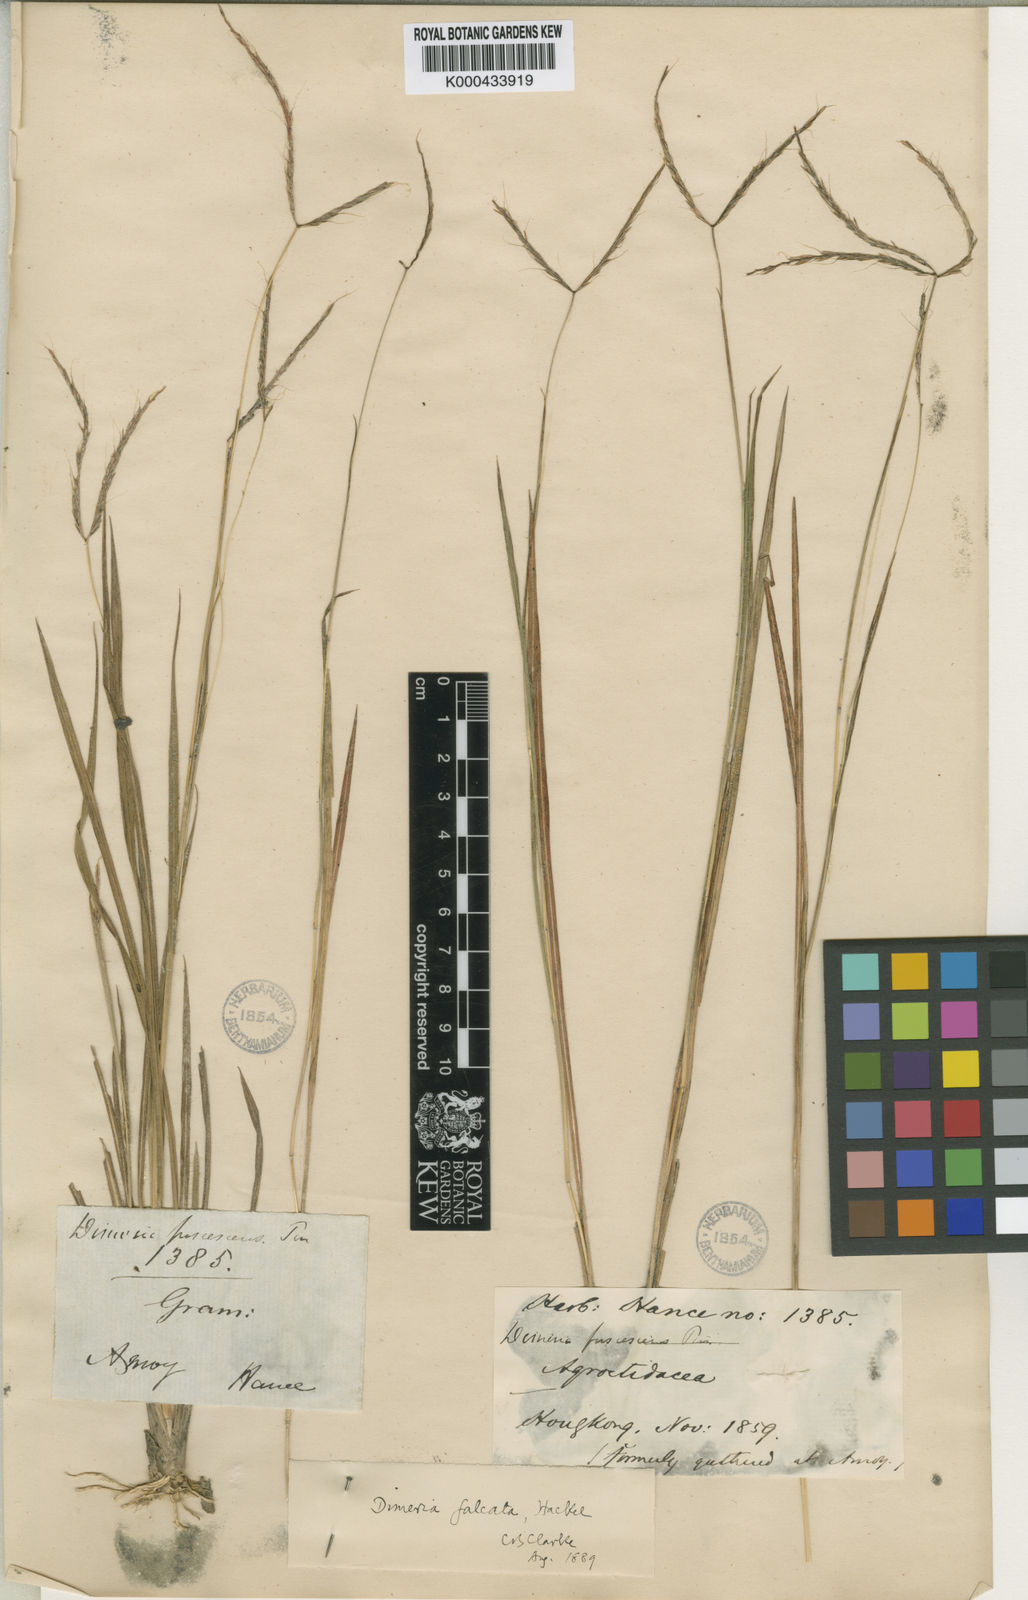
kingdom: Plantae
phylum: Tracheophyta
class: Liliopsida
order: Poales
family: Poaceae
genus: Dimeria
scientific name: Dimeria falcata
